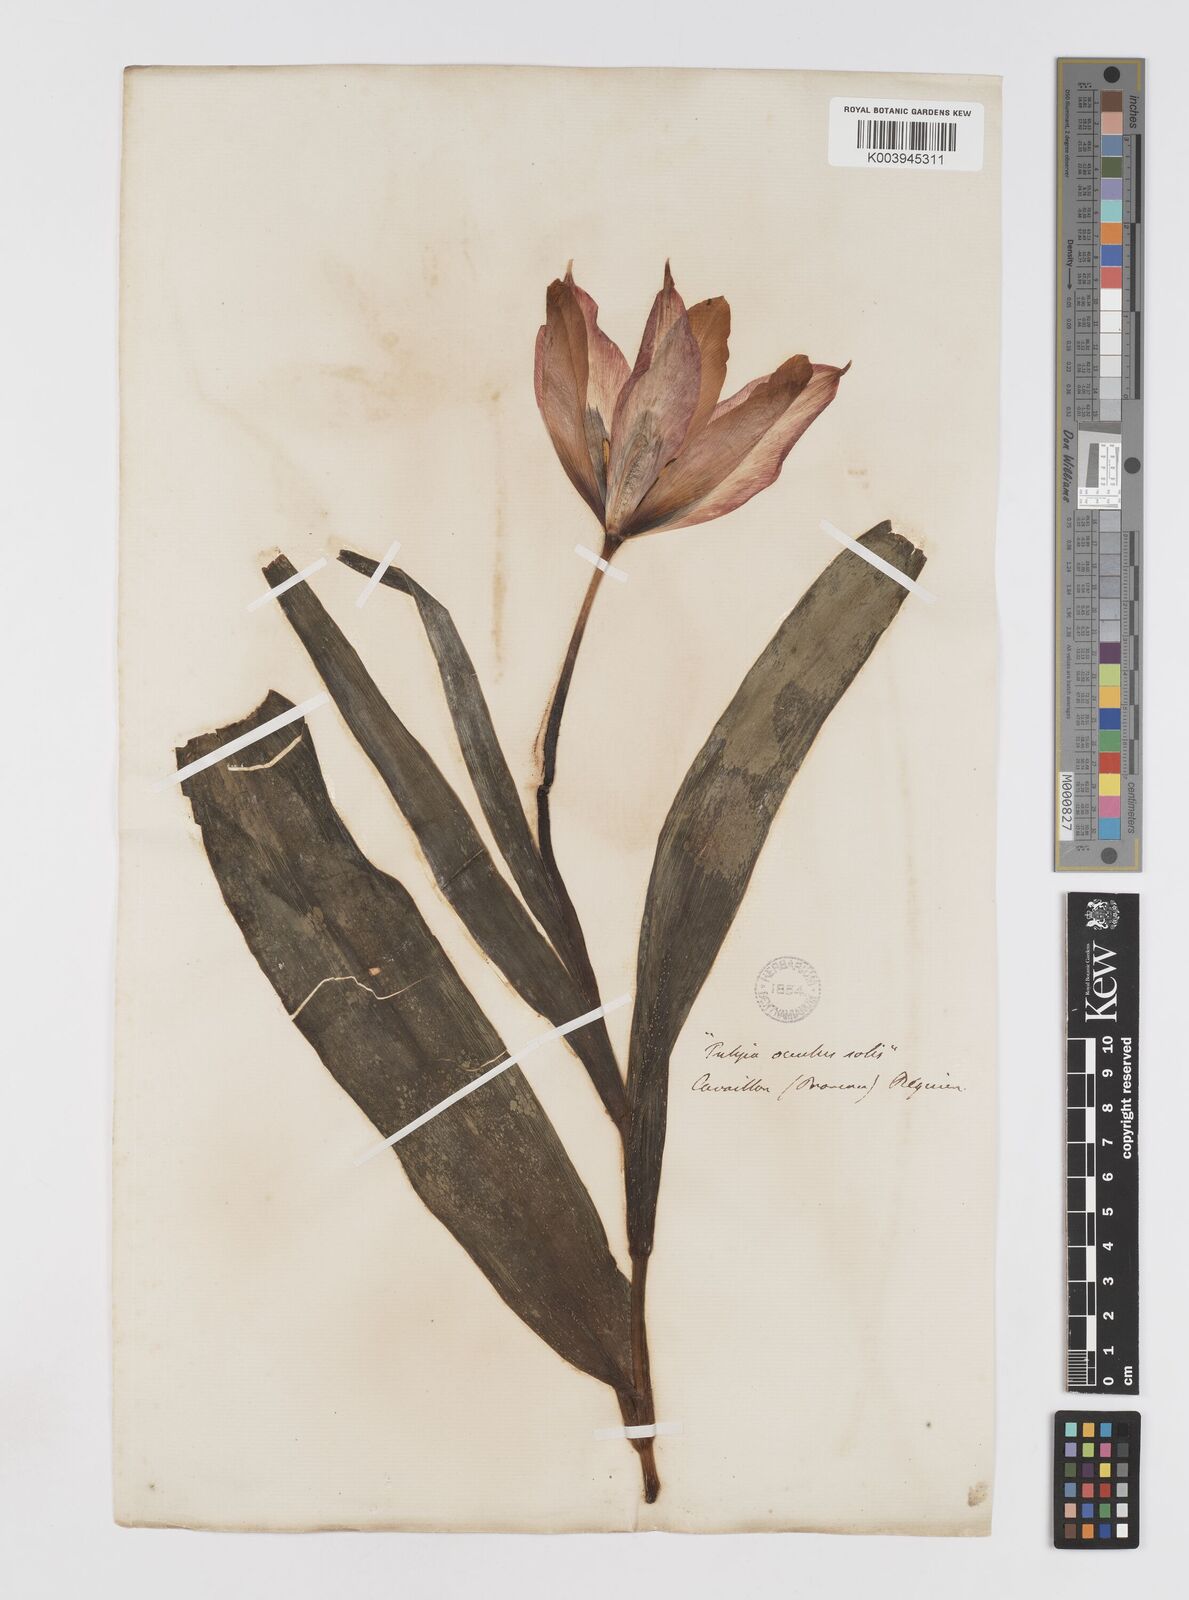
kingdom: Plantae
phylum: Tracheophyta
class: Liliopsida
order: Liliales
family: Liliaceae
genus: Tulipa
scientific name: Tulipa agenensis
